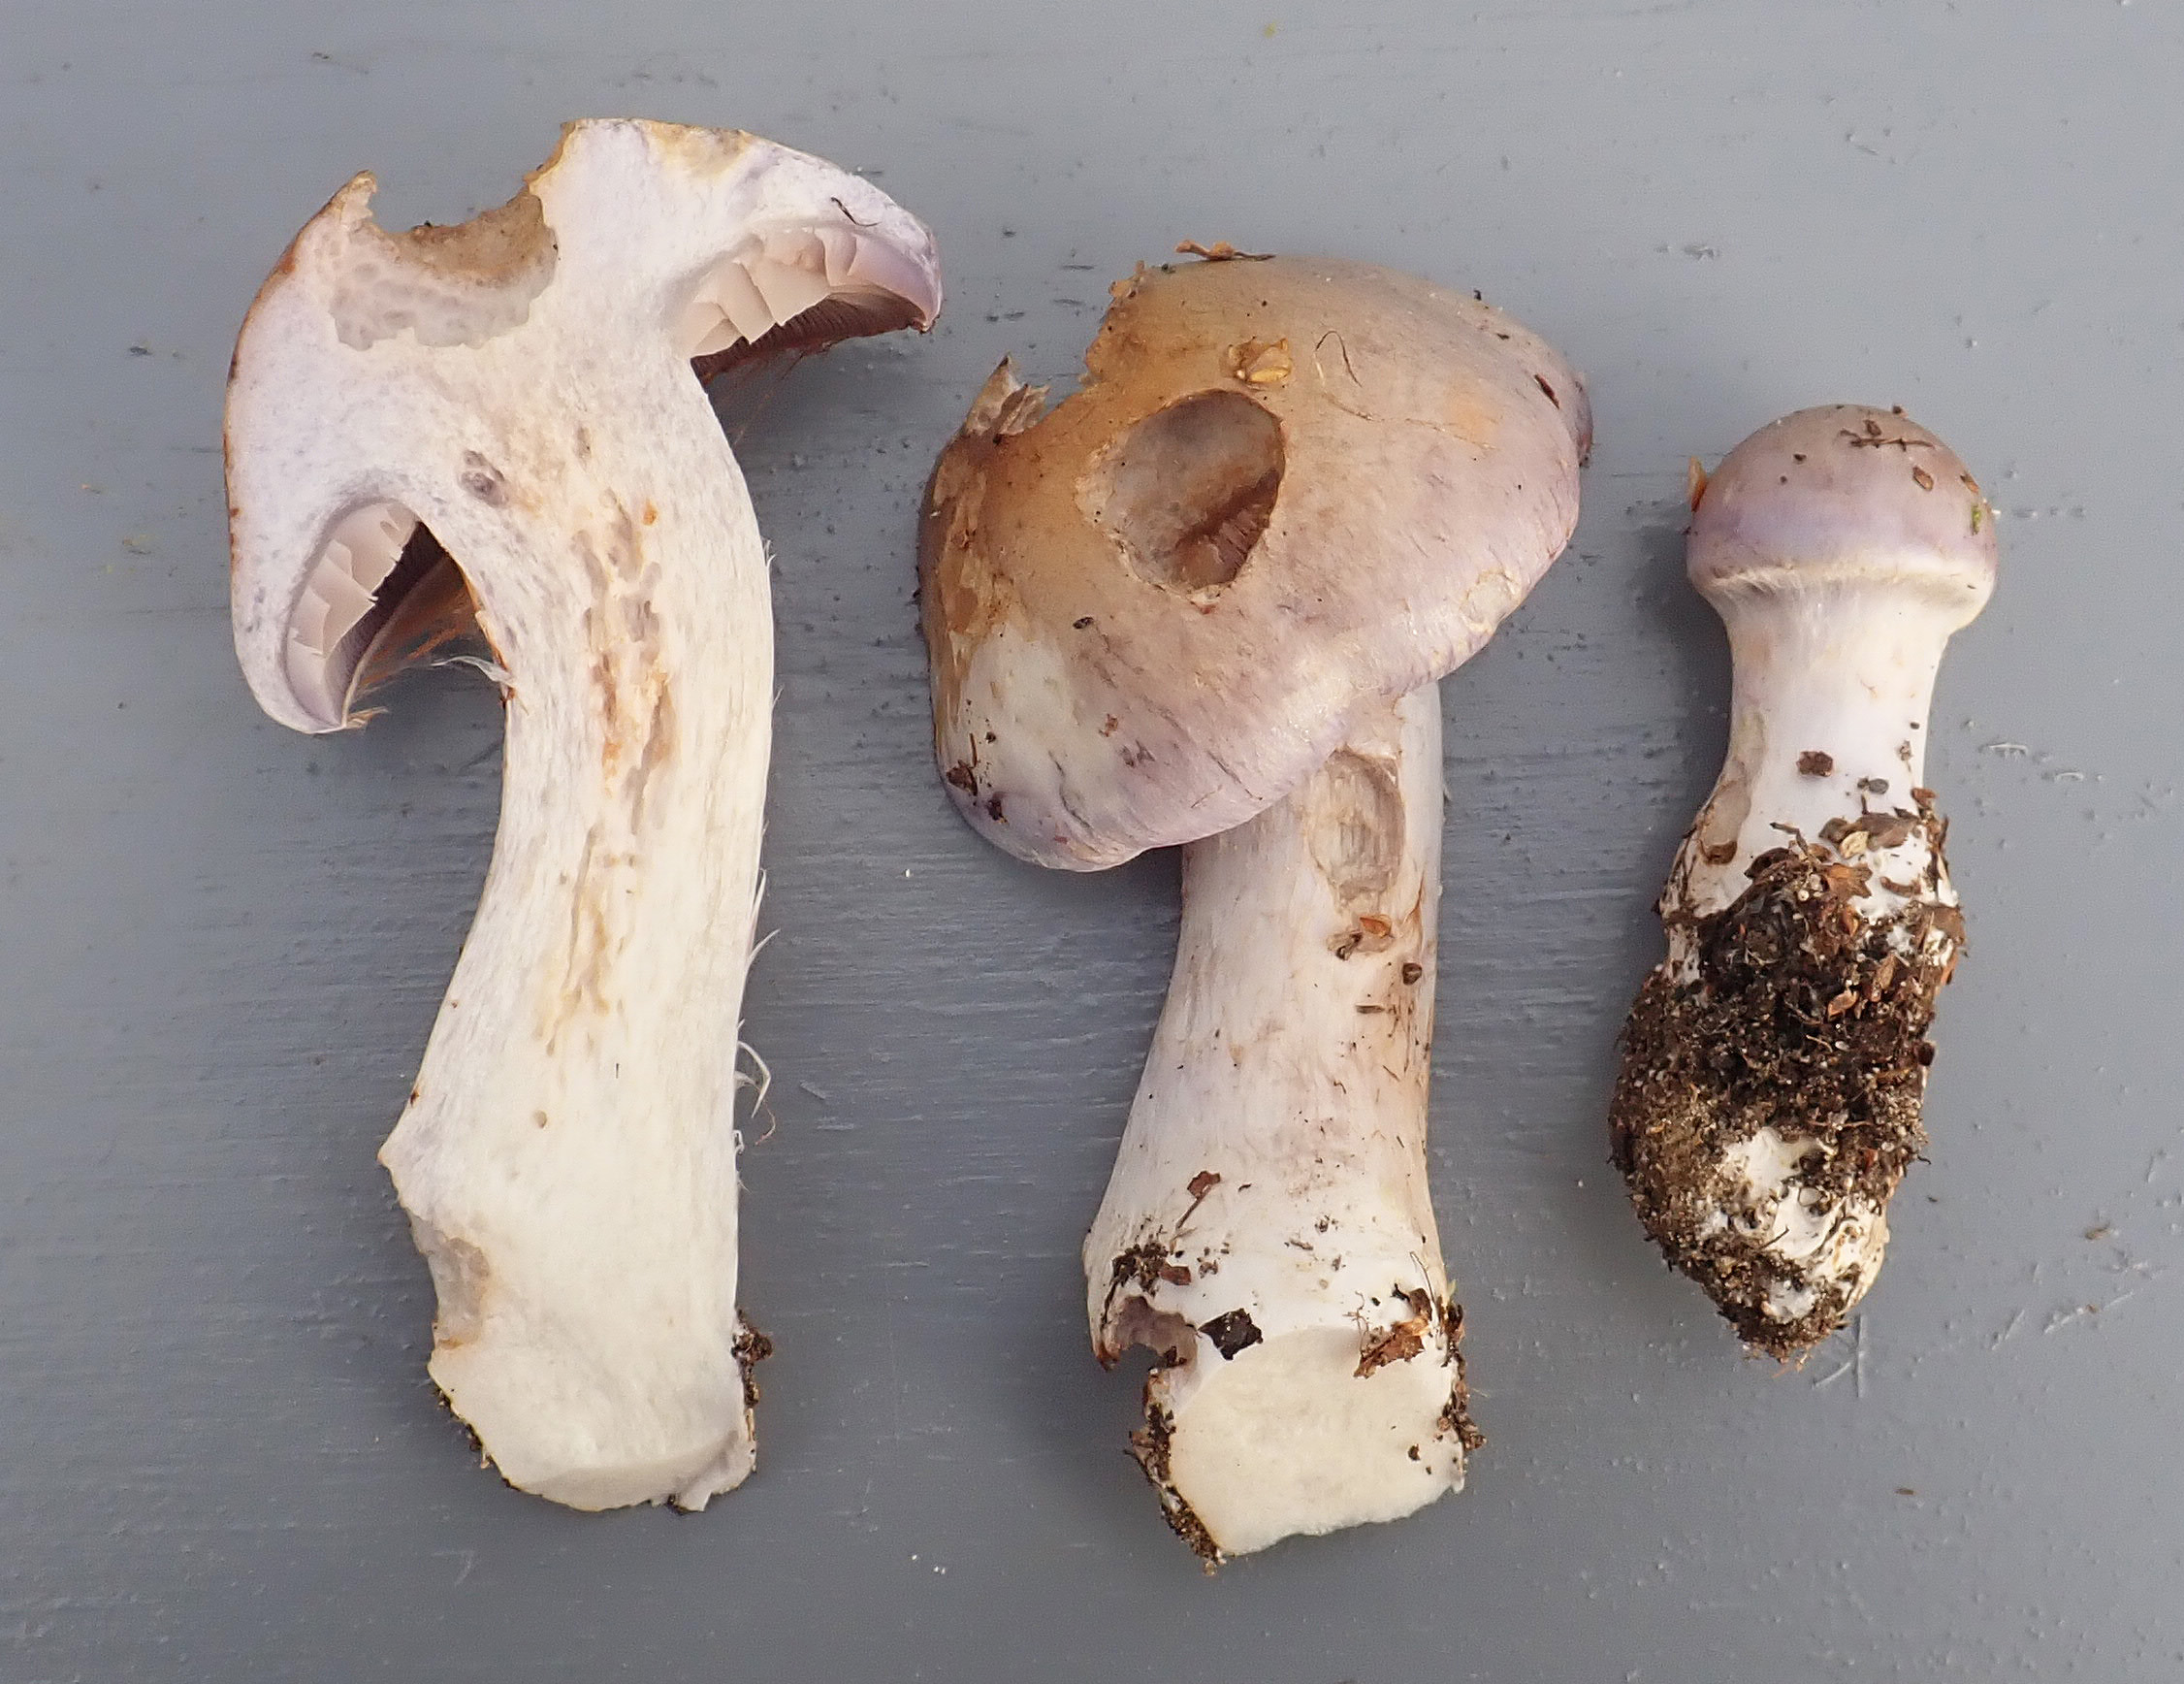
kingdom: Fungi
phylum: Basidiomycota
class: Agaricomycetes
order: Agaricales
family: Cortinariaceae
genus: Cortinarius
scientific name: Cortinarius largus
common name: Big-bellied webcap
